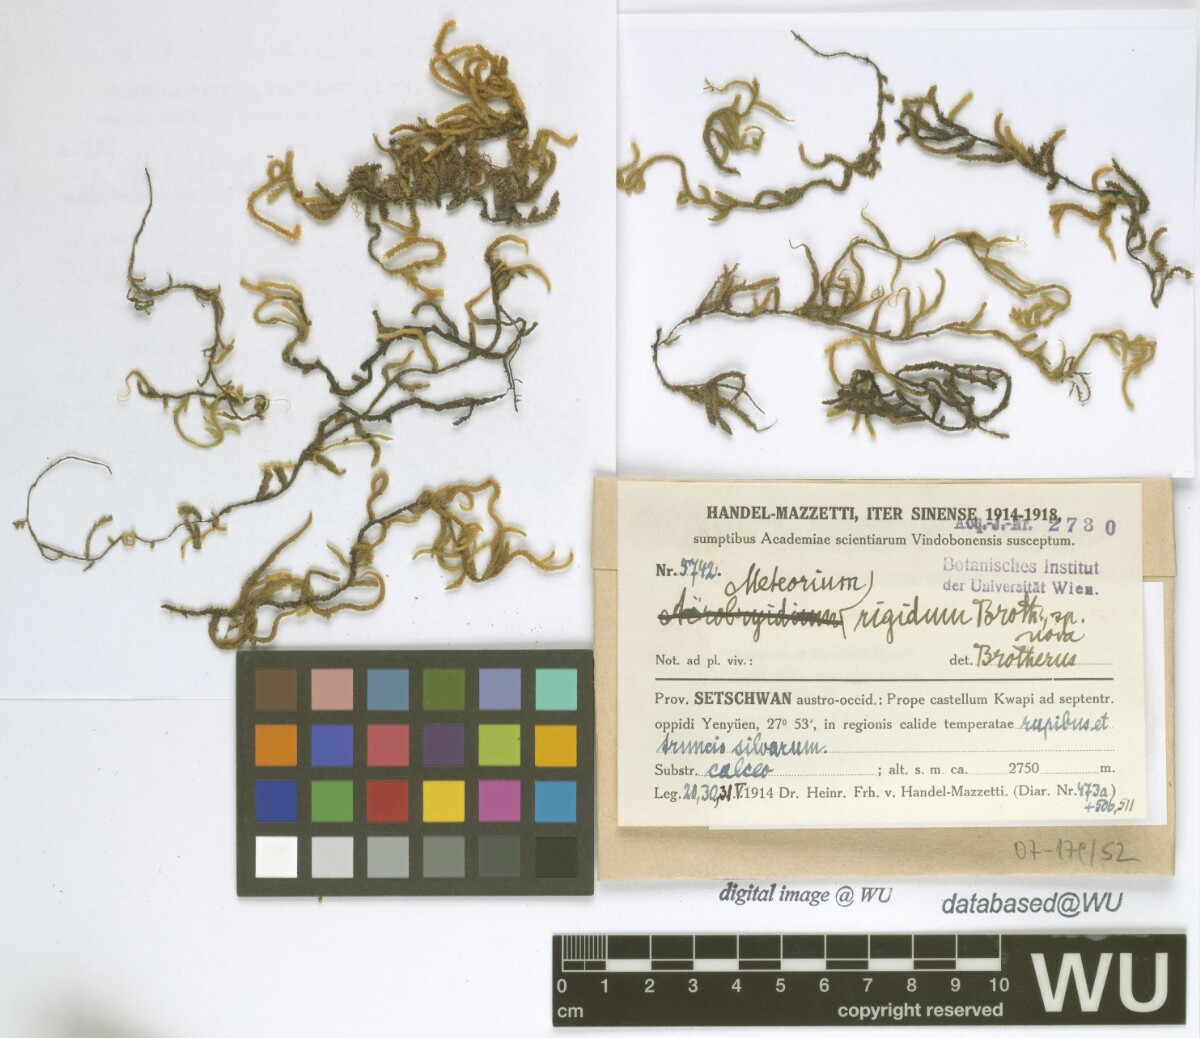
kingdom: Plantae
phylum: Bryophyta
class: Bryopsida
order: Hypnales
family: Meteoriaceae
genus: Meteorium
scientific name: Meteorium buchananii
